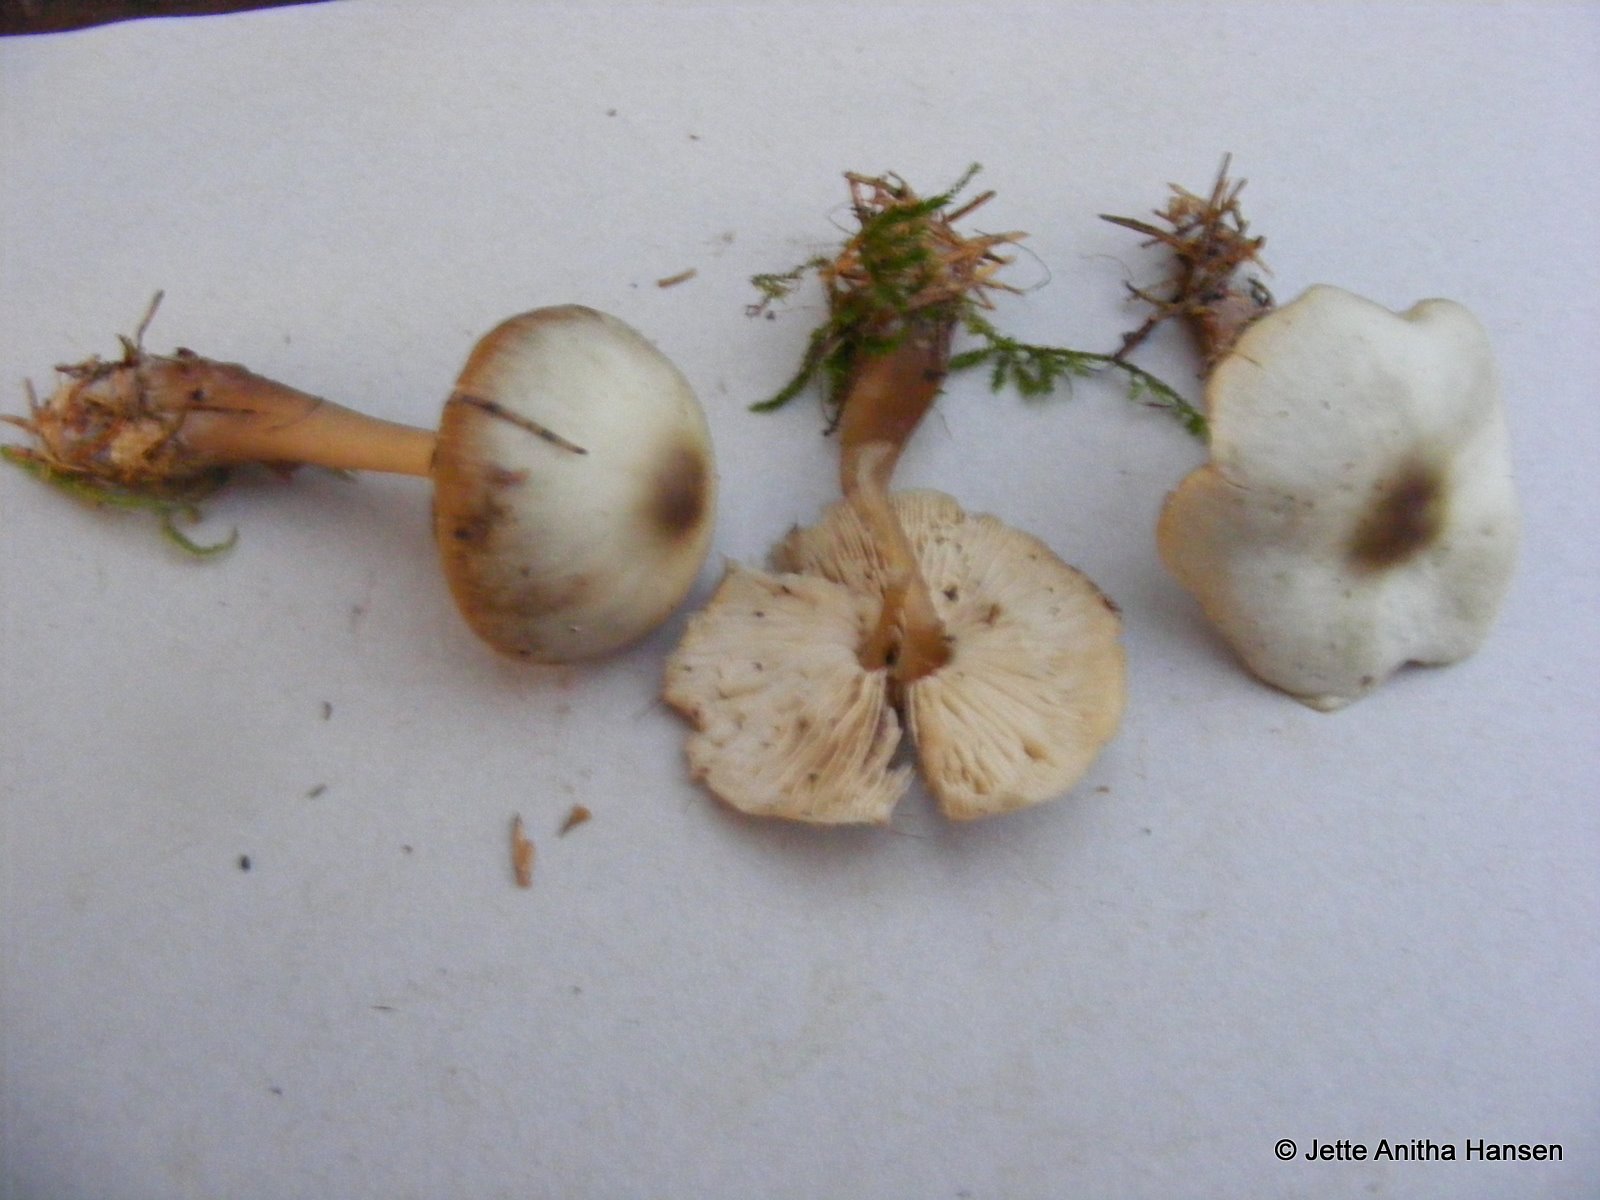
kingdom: Fungi
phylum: Basidiomycota
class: Agaricomycetes
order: Agaricales
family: Omphalotaceae
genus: Rhodocollybia
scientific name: Rhodocollybia asema
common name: horngrå fladhat
